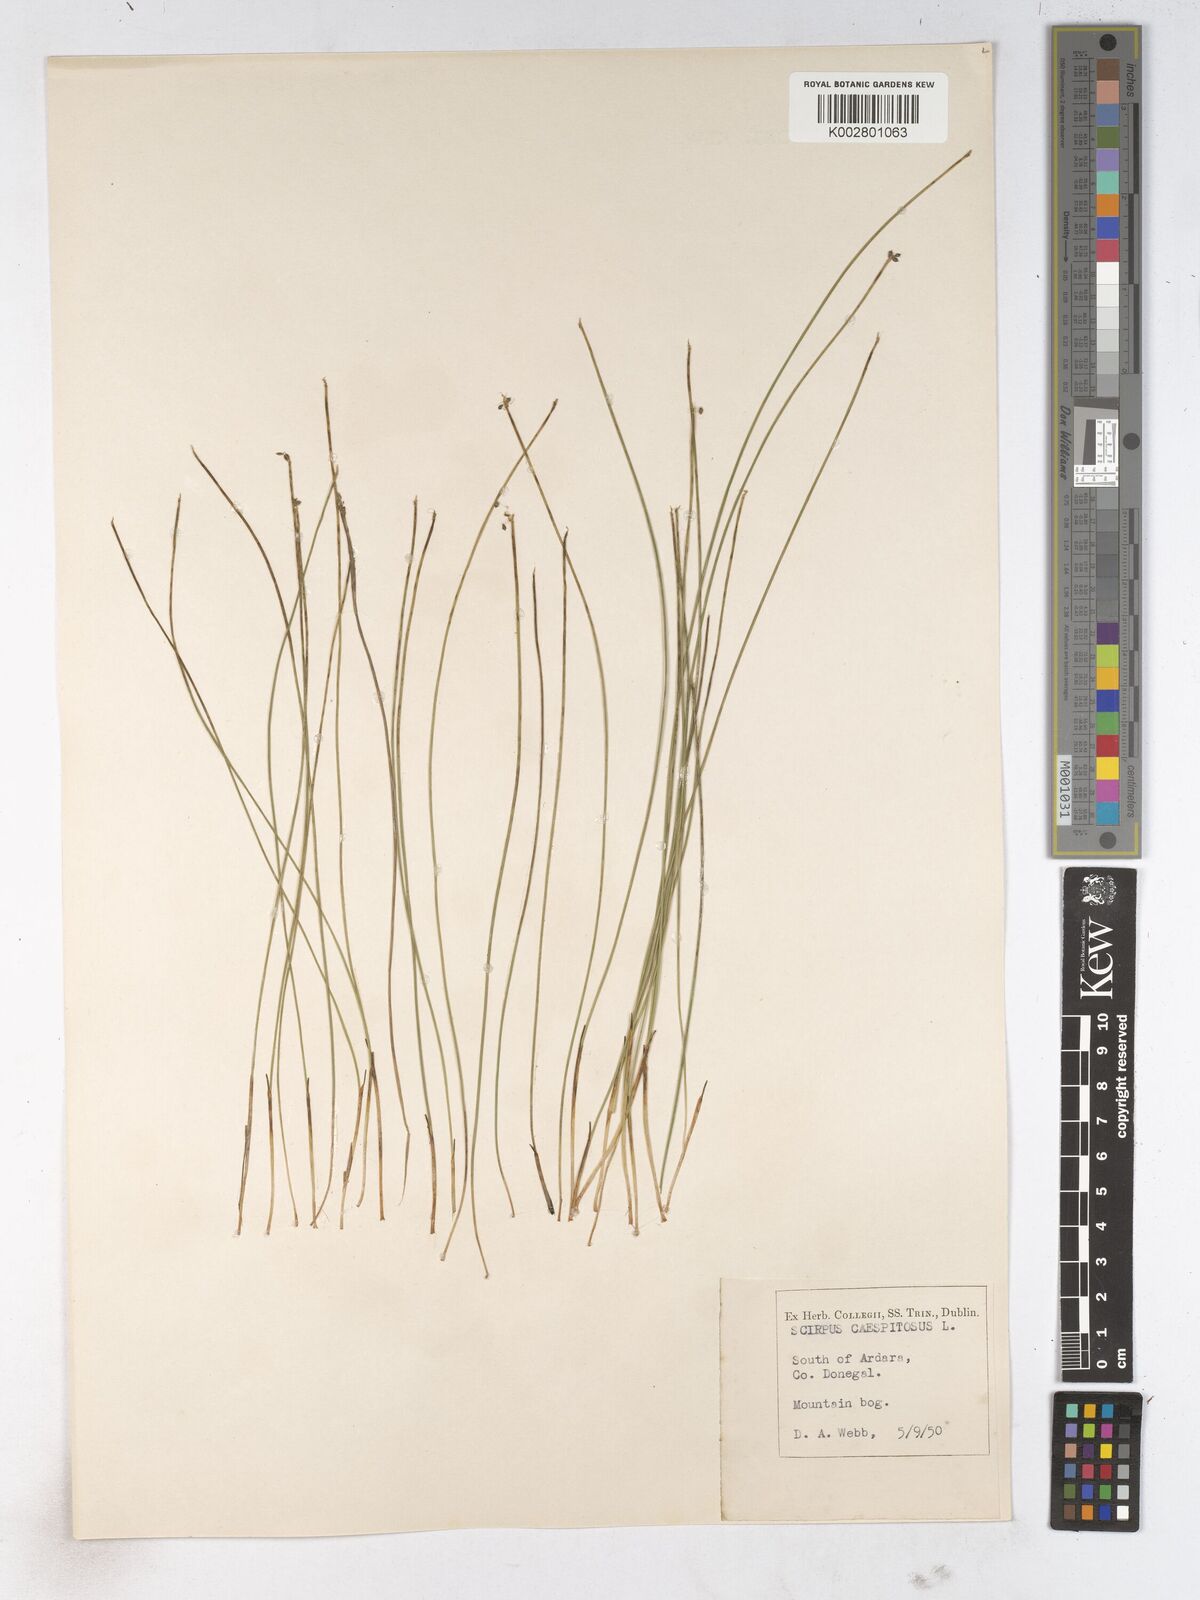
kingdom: Plantae
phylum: Tracheophyta
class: Liliopsida
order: Poales
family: Cyperaceae
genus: Trichophorum
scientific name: Trichophorum cespitosum
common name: Cespitose bulrush
